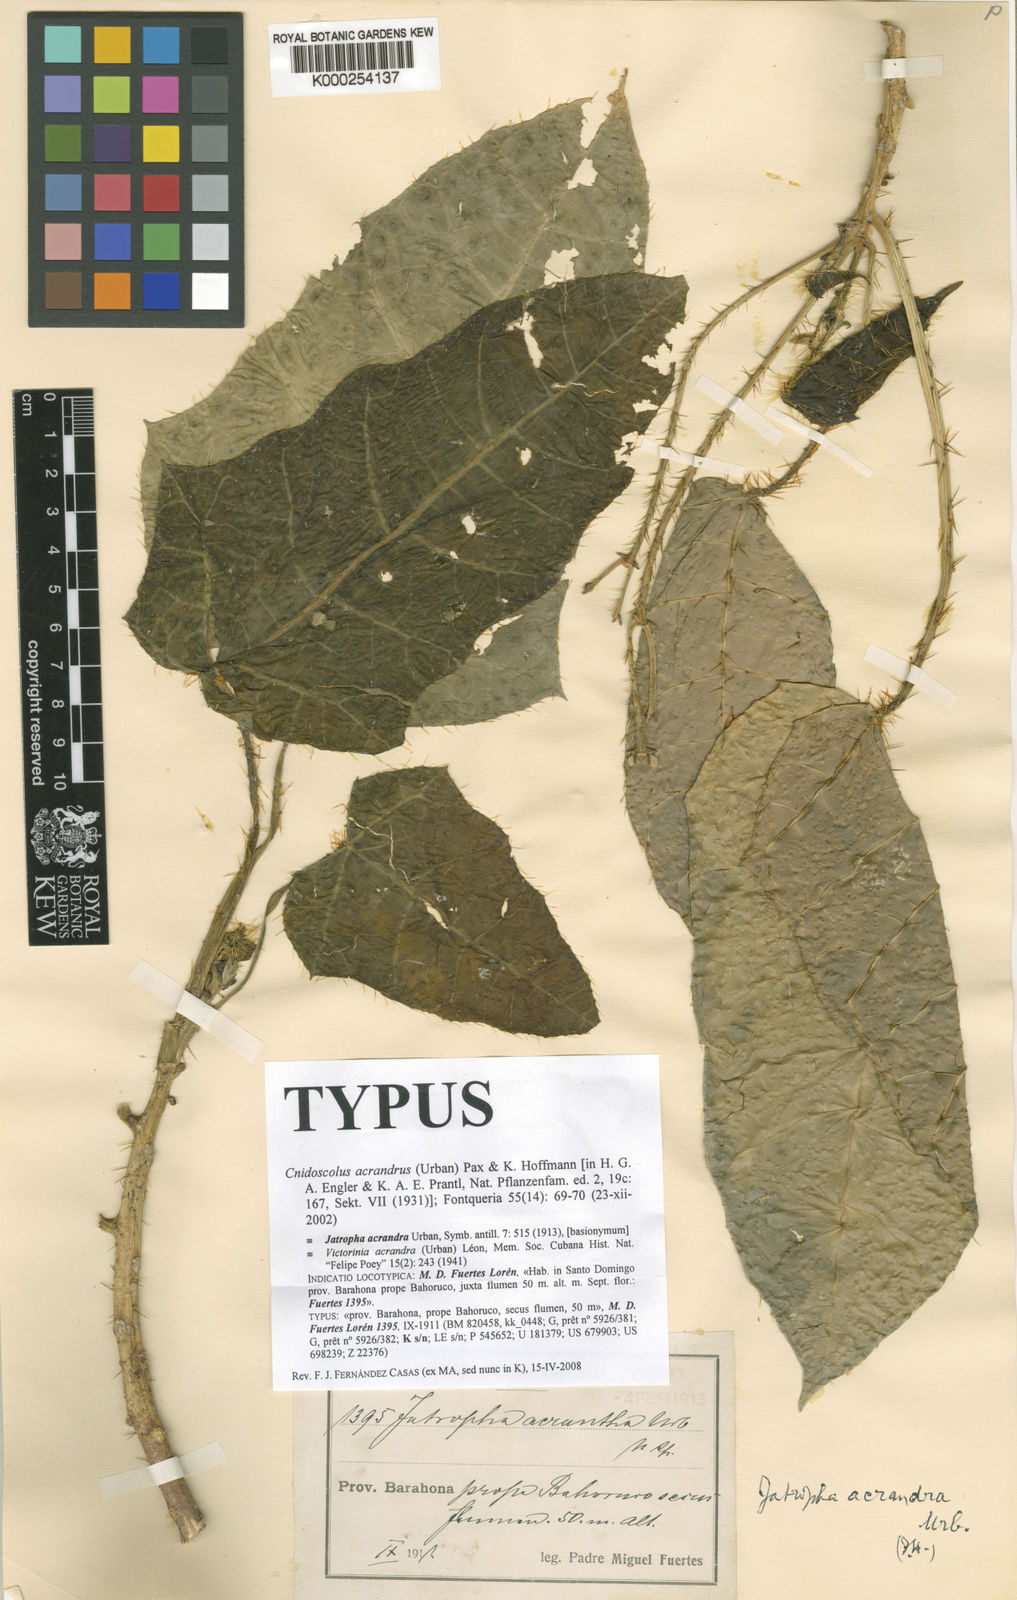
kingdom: Plantae
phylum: Tracheophyta
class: Magnoliopsida
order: Malpighiales
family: Euphorbiaceae
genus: Cnidoscolus
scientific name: Cnidoscolus acrandrus
